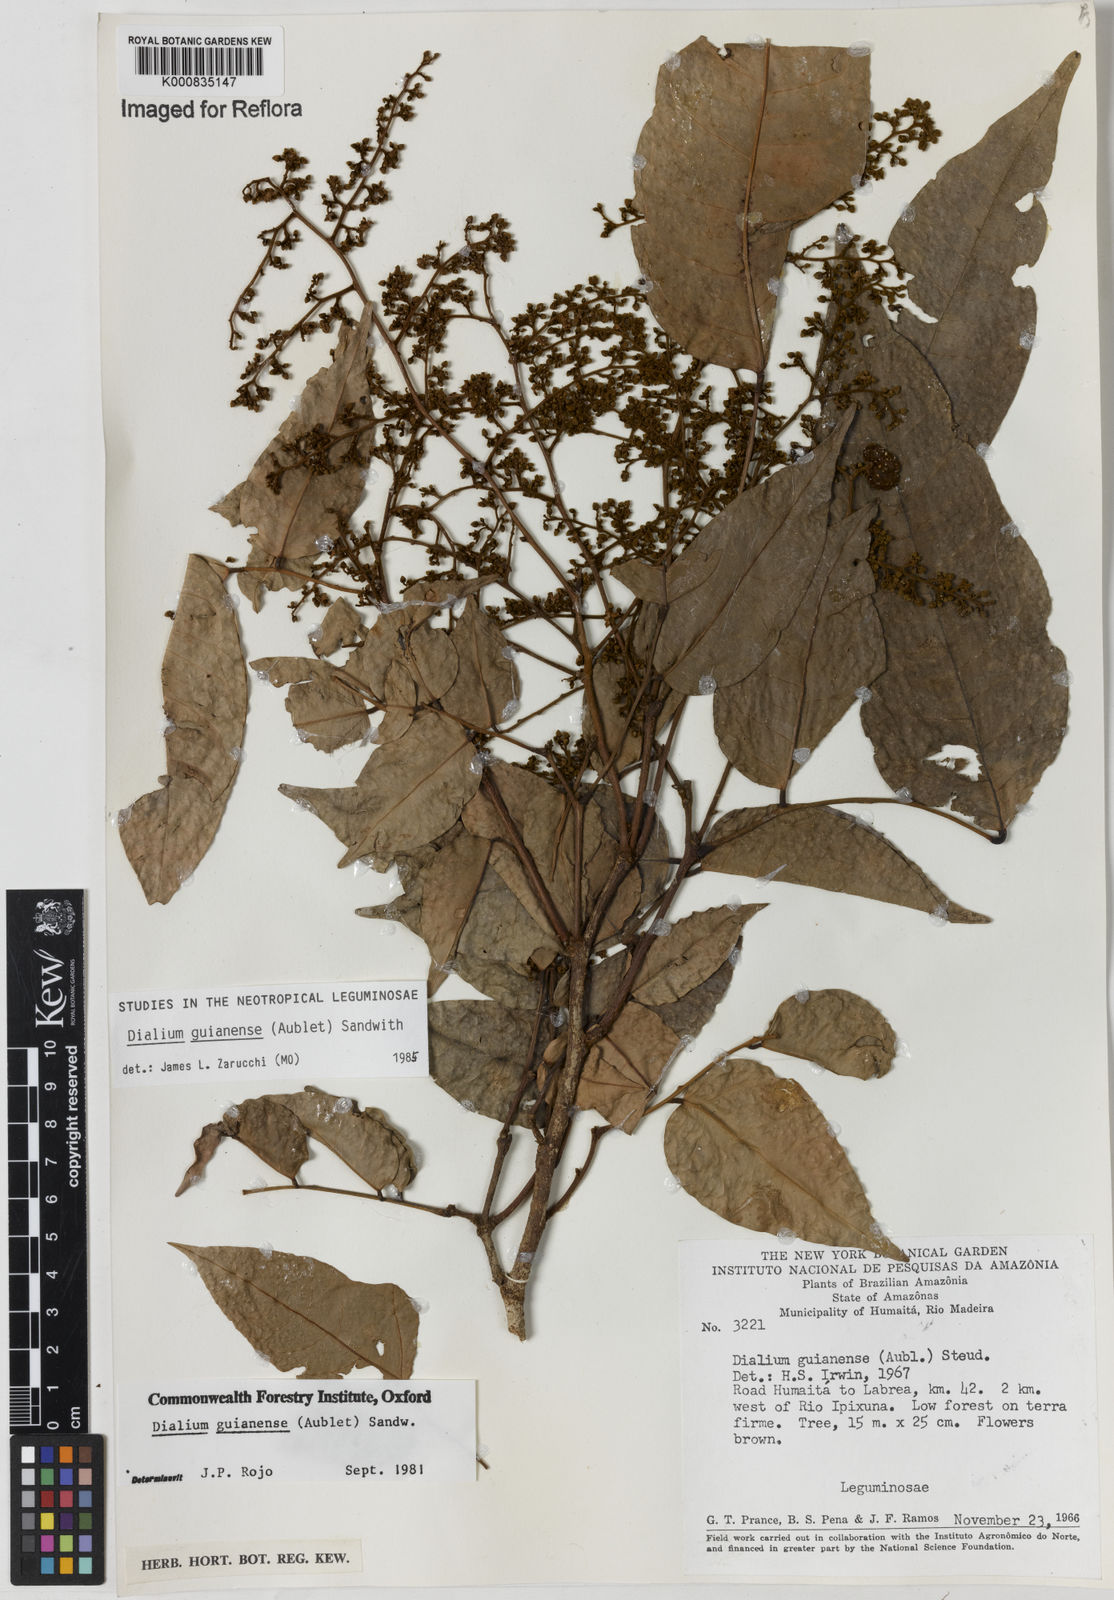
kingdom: Plantae
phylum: Tracheophyta
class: Magnoliopsida
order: Fabales
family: Fabaceae
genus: Dialium
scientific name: Dialium guianense
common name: Ironwood
